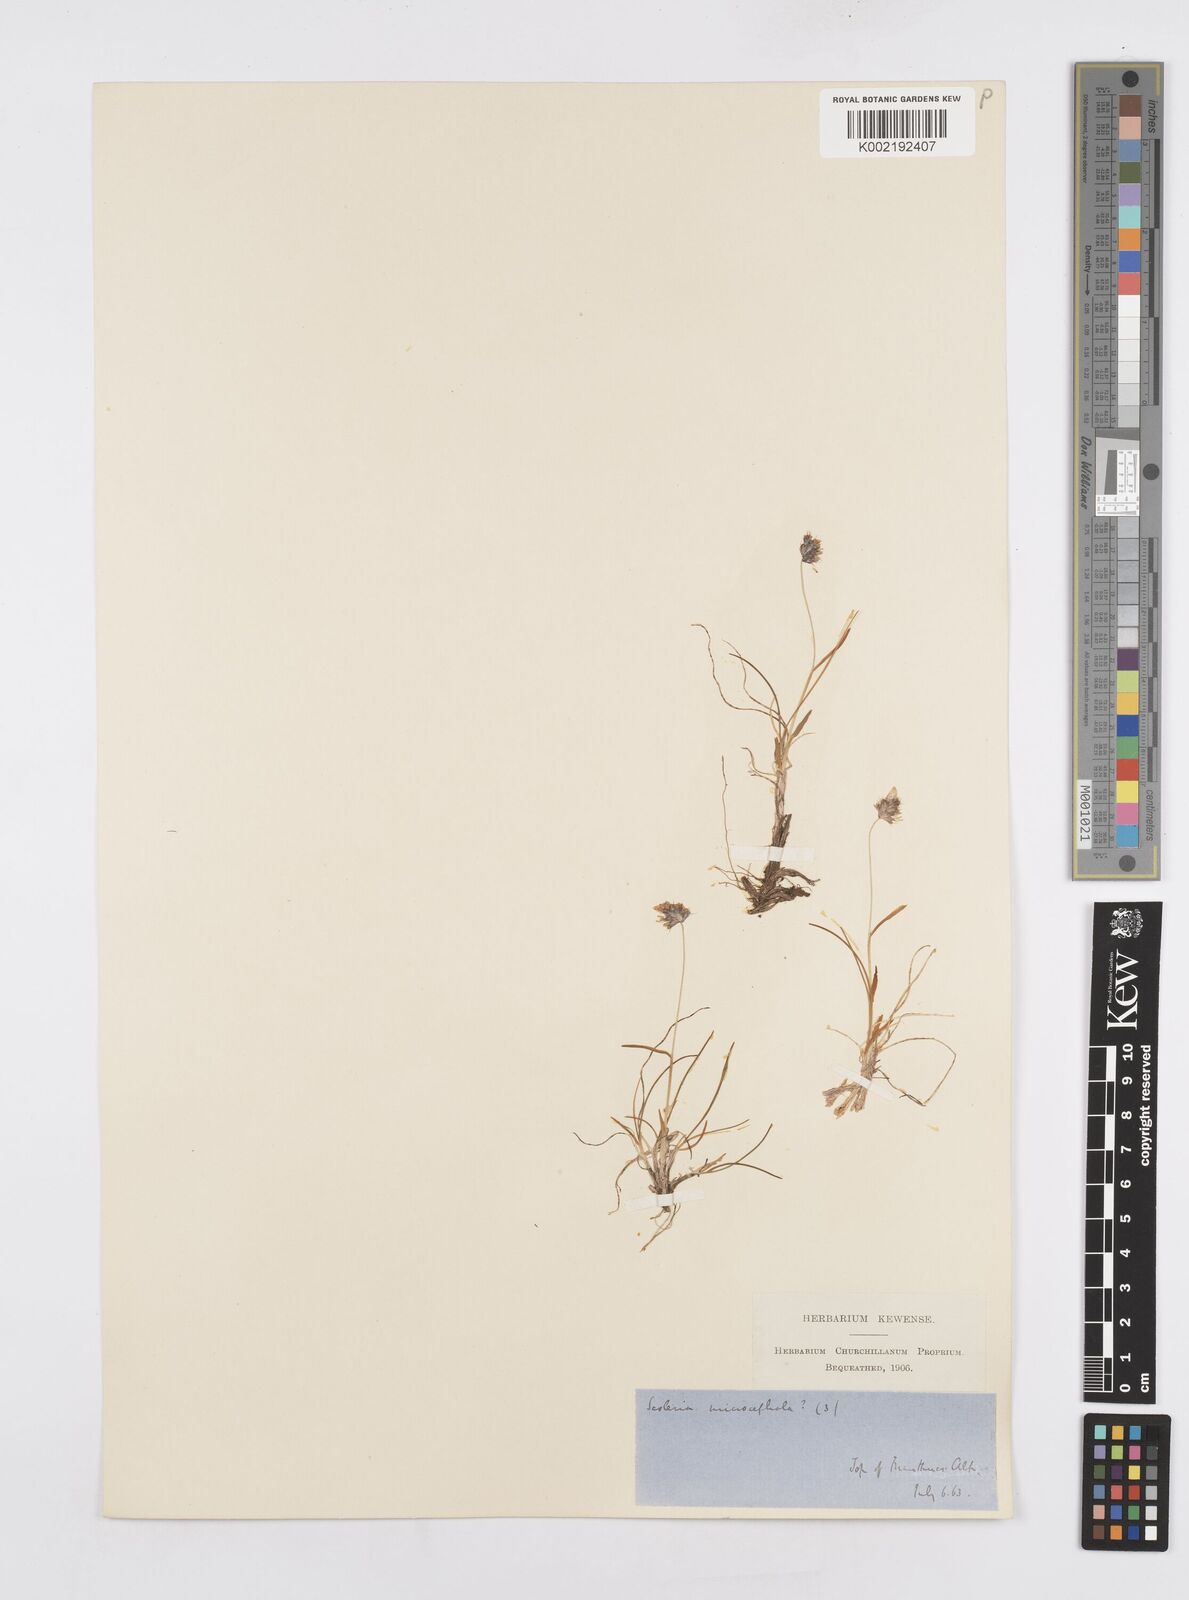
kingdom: Plantae
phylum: Tracheophyta
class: Liliopsida
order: Poales
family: Poaceae
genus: Psilathera
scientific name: Psilathera ovata
